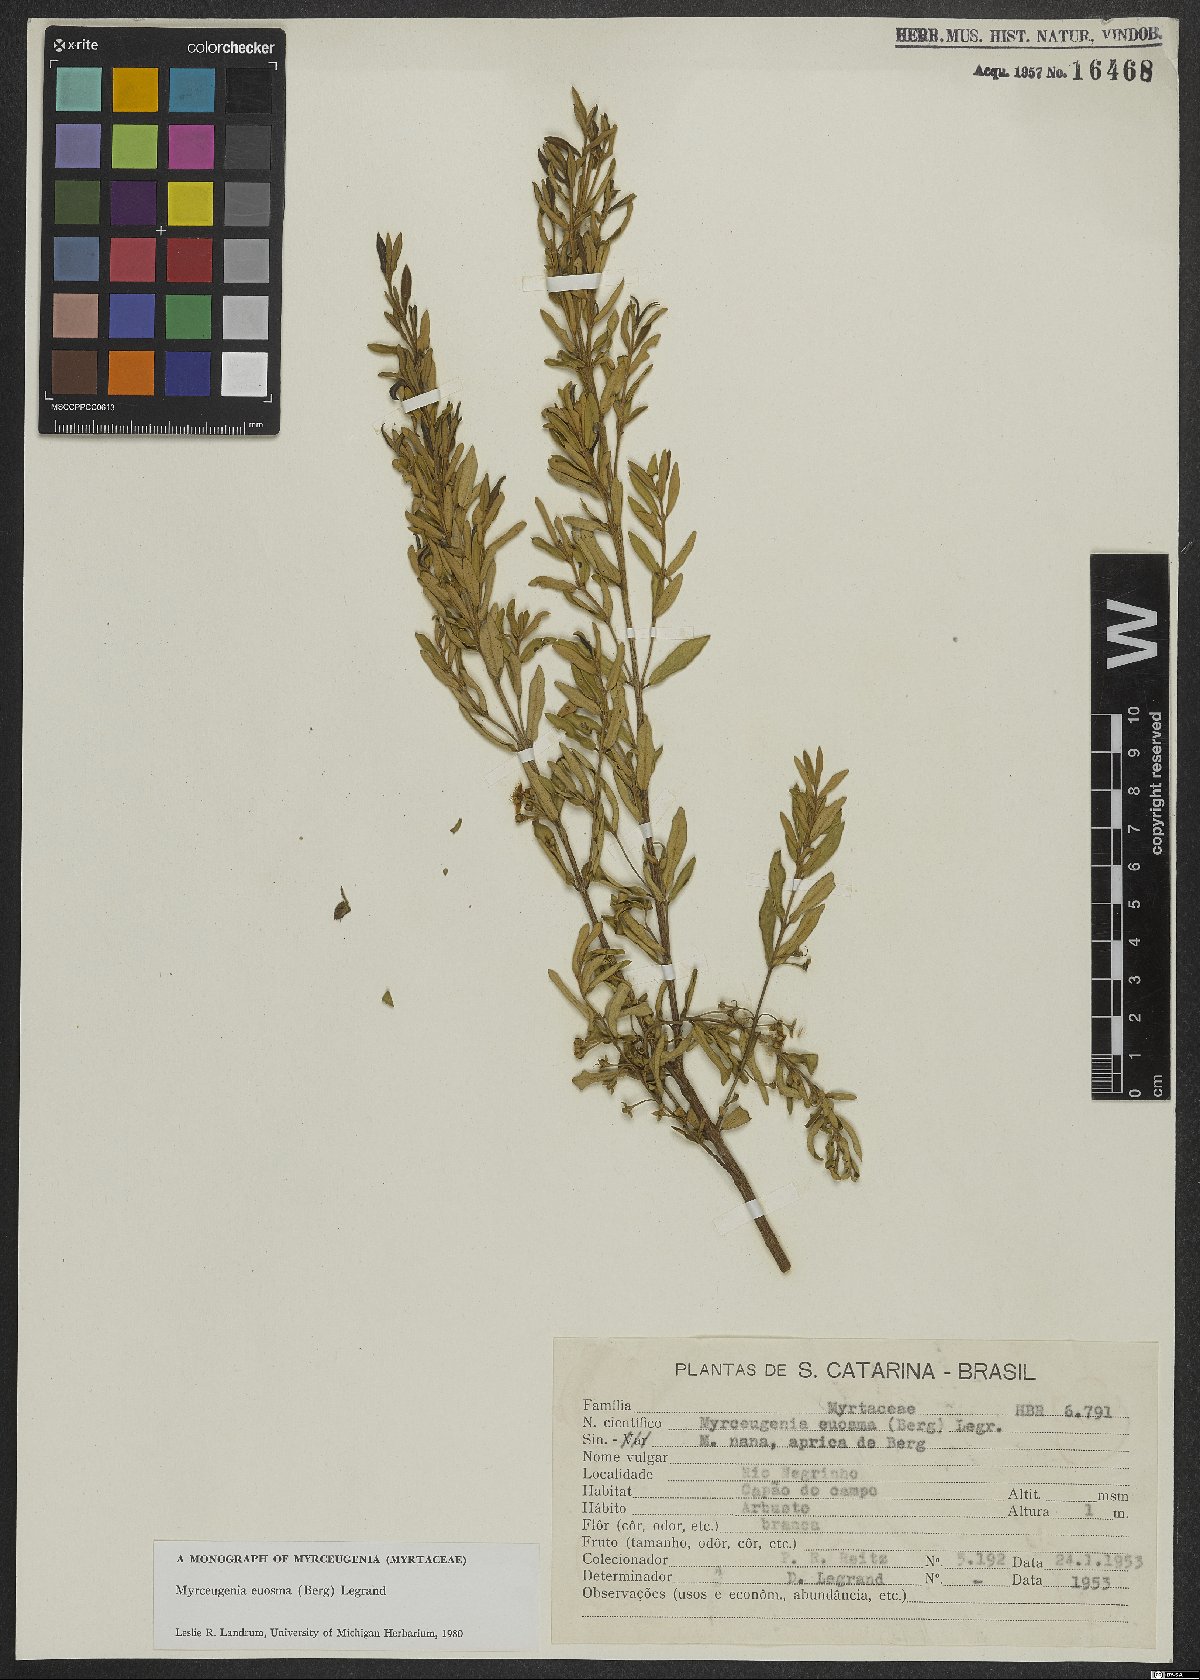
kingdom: Plantae
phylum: Tracheophyta
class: Magnoliopsida
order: Myrtales
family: Myrtaceae
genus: Myrceugenia
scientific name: Myrceugenia euosma
